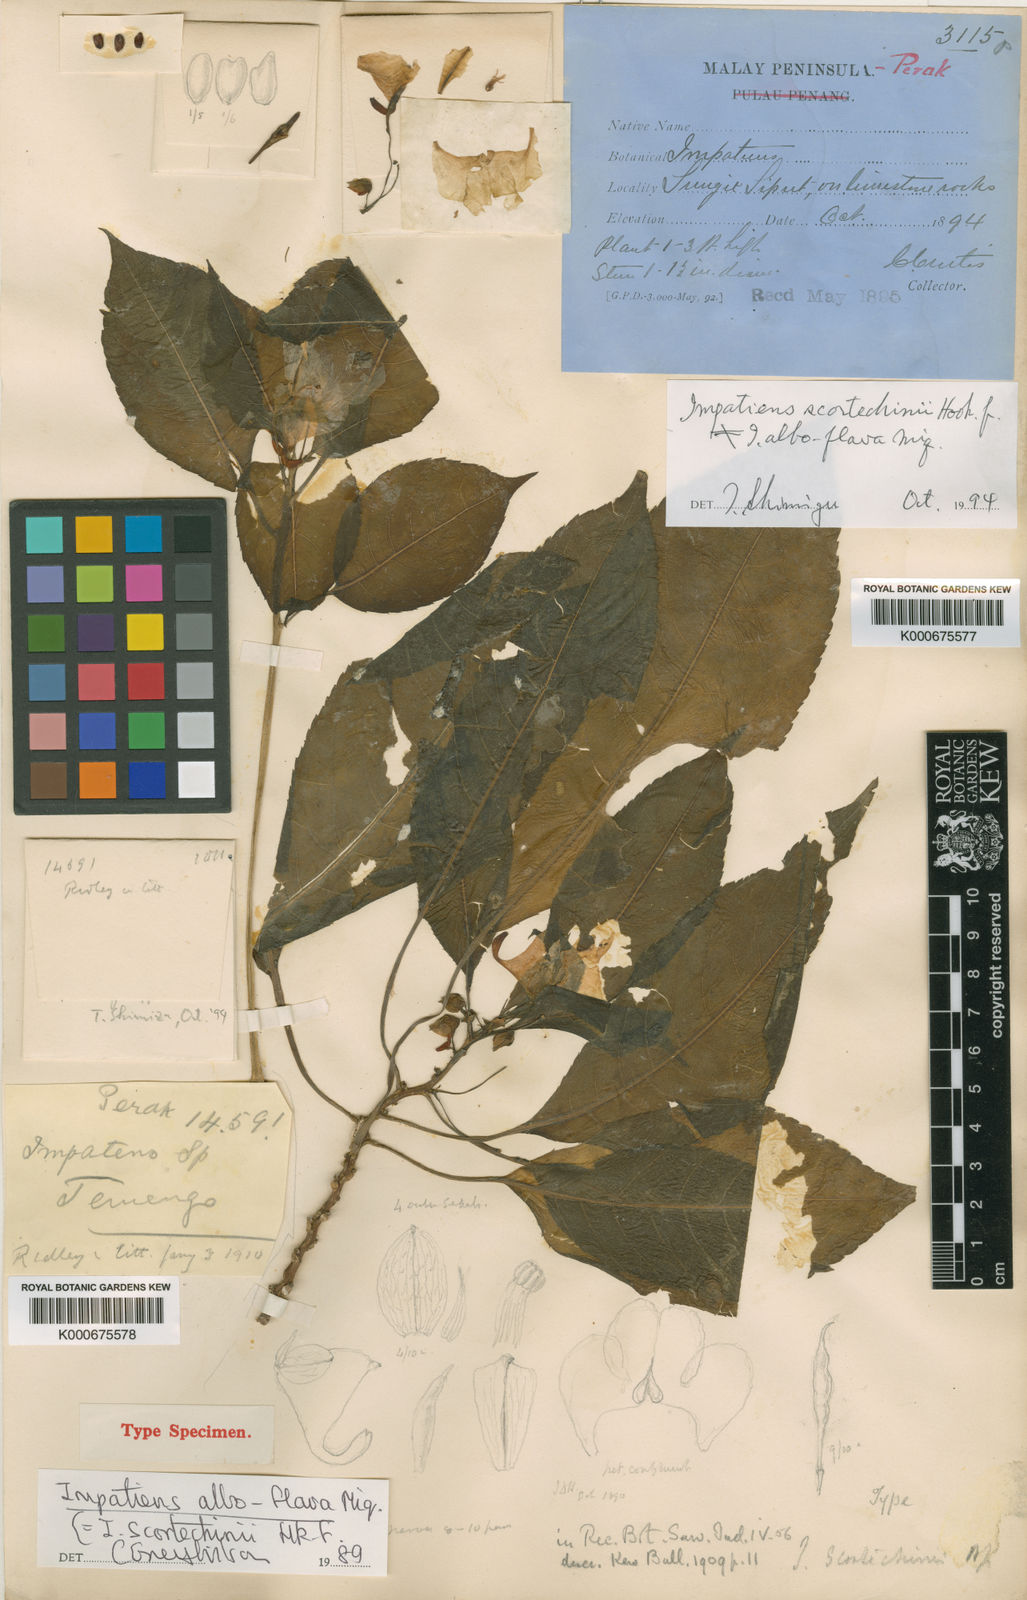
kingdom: Plantae
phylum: Tracheophyta
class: Magnoliopsida
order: Ericales
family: Balsaminaceae
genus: Impatiens
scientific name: Impatiens scortechinii
